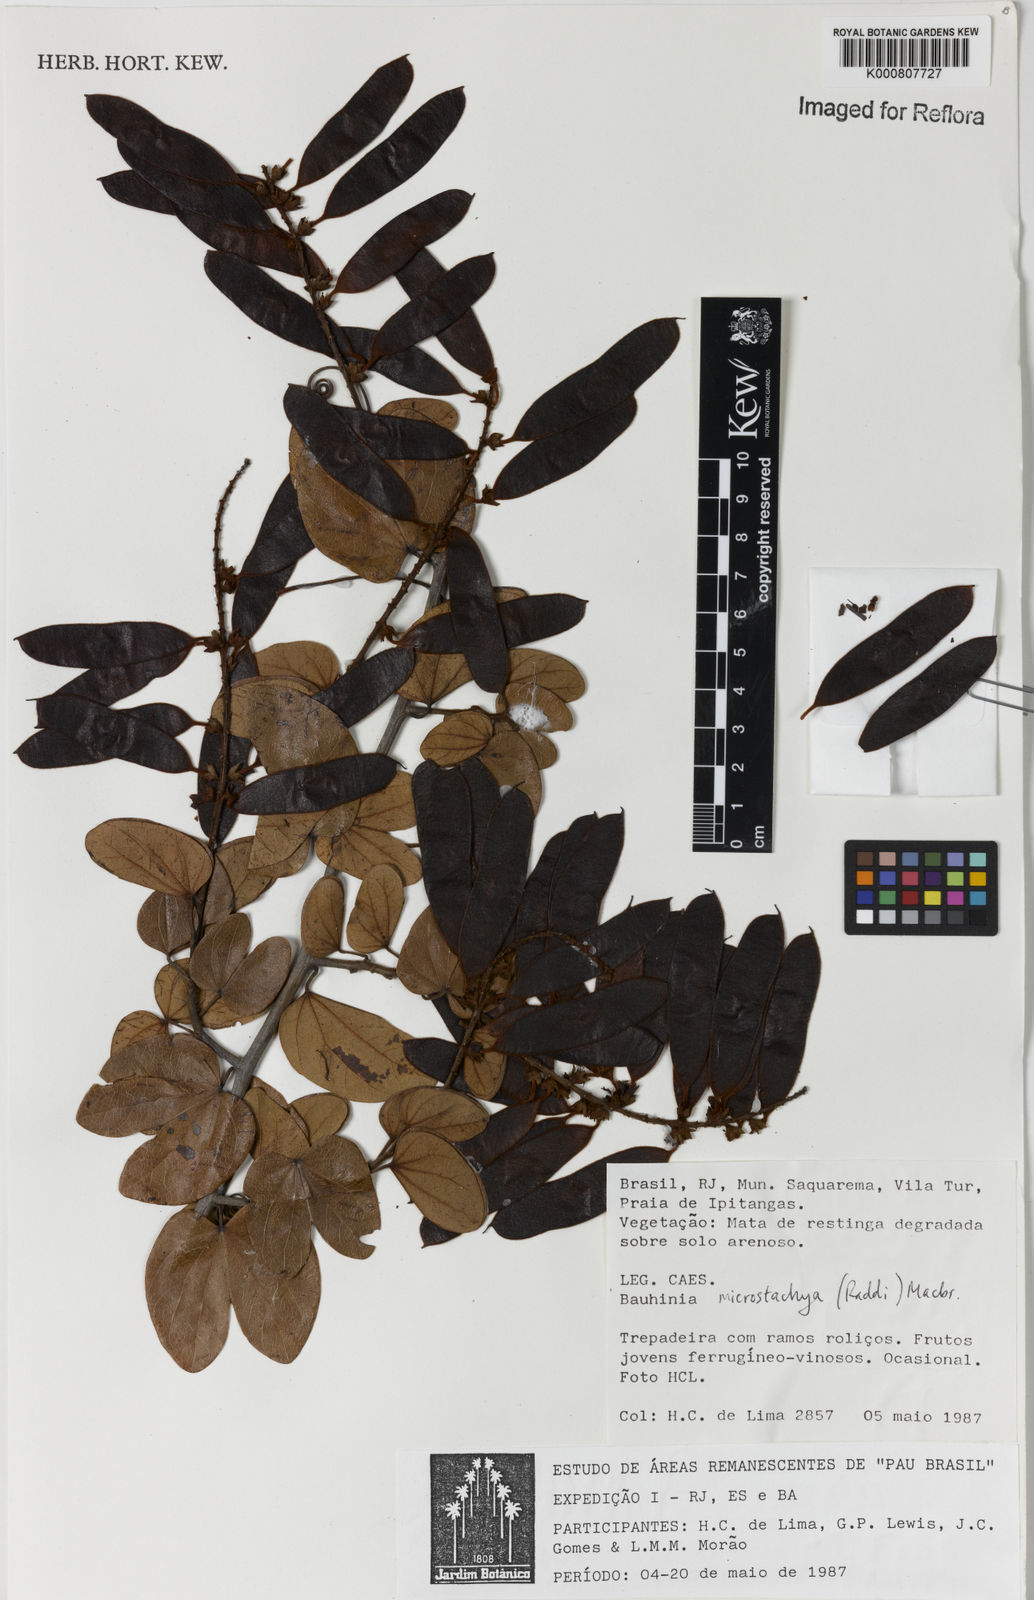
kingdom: Plantae
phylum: Tracheophyta
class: Magnoliopsida
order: Fabales
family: Fabaceae
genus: Schnella
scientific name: Schnella microstachya
